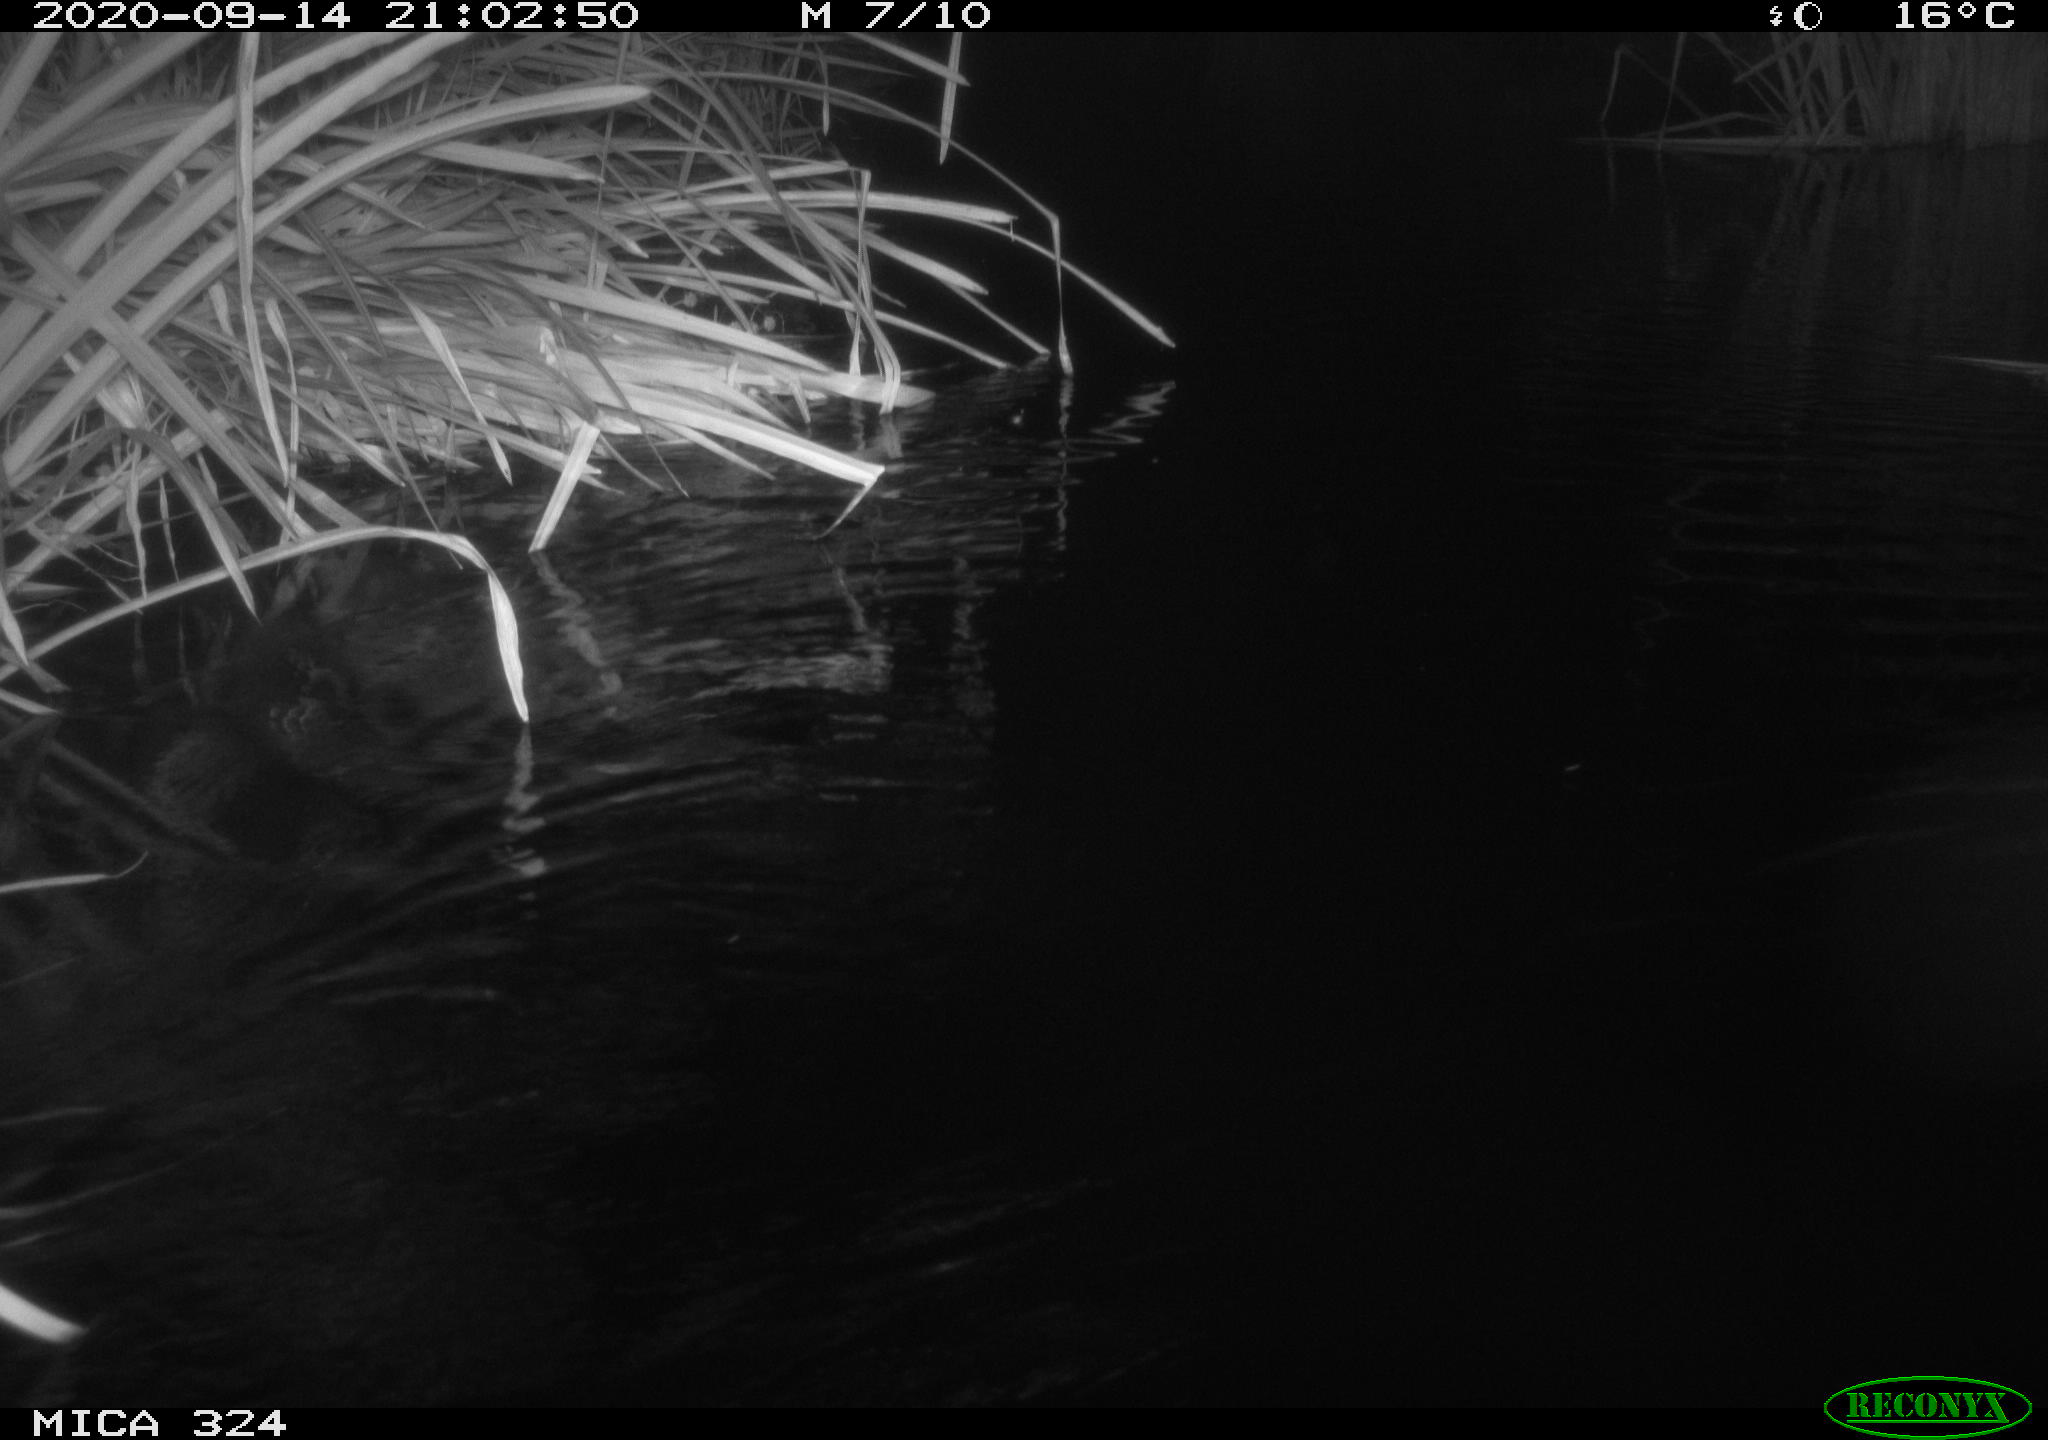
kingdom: Animalia
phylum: Chordata
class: Mammalia
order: Rodentia
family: Cricetidae
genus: Ondatra
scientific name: Ondatra zibethicus
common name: Muskrat
